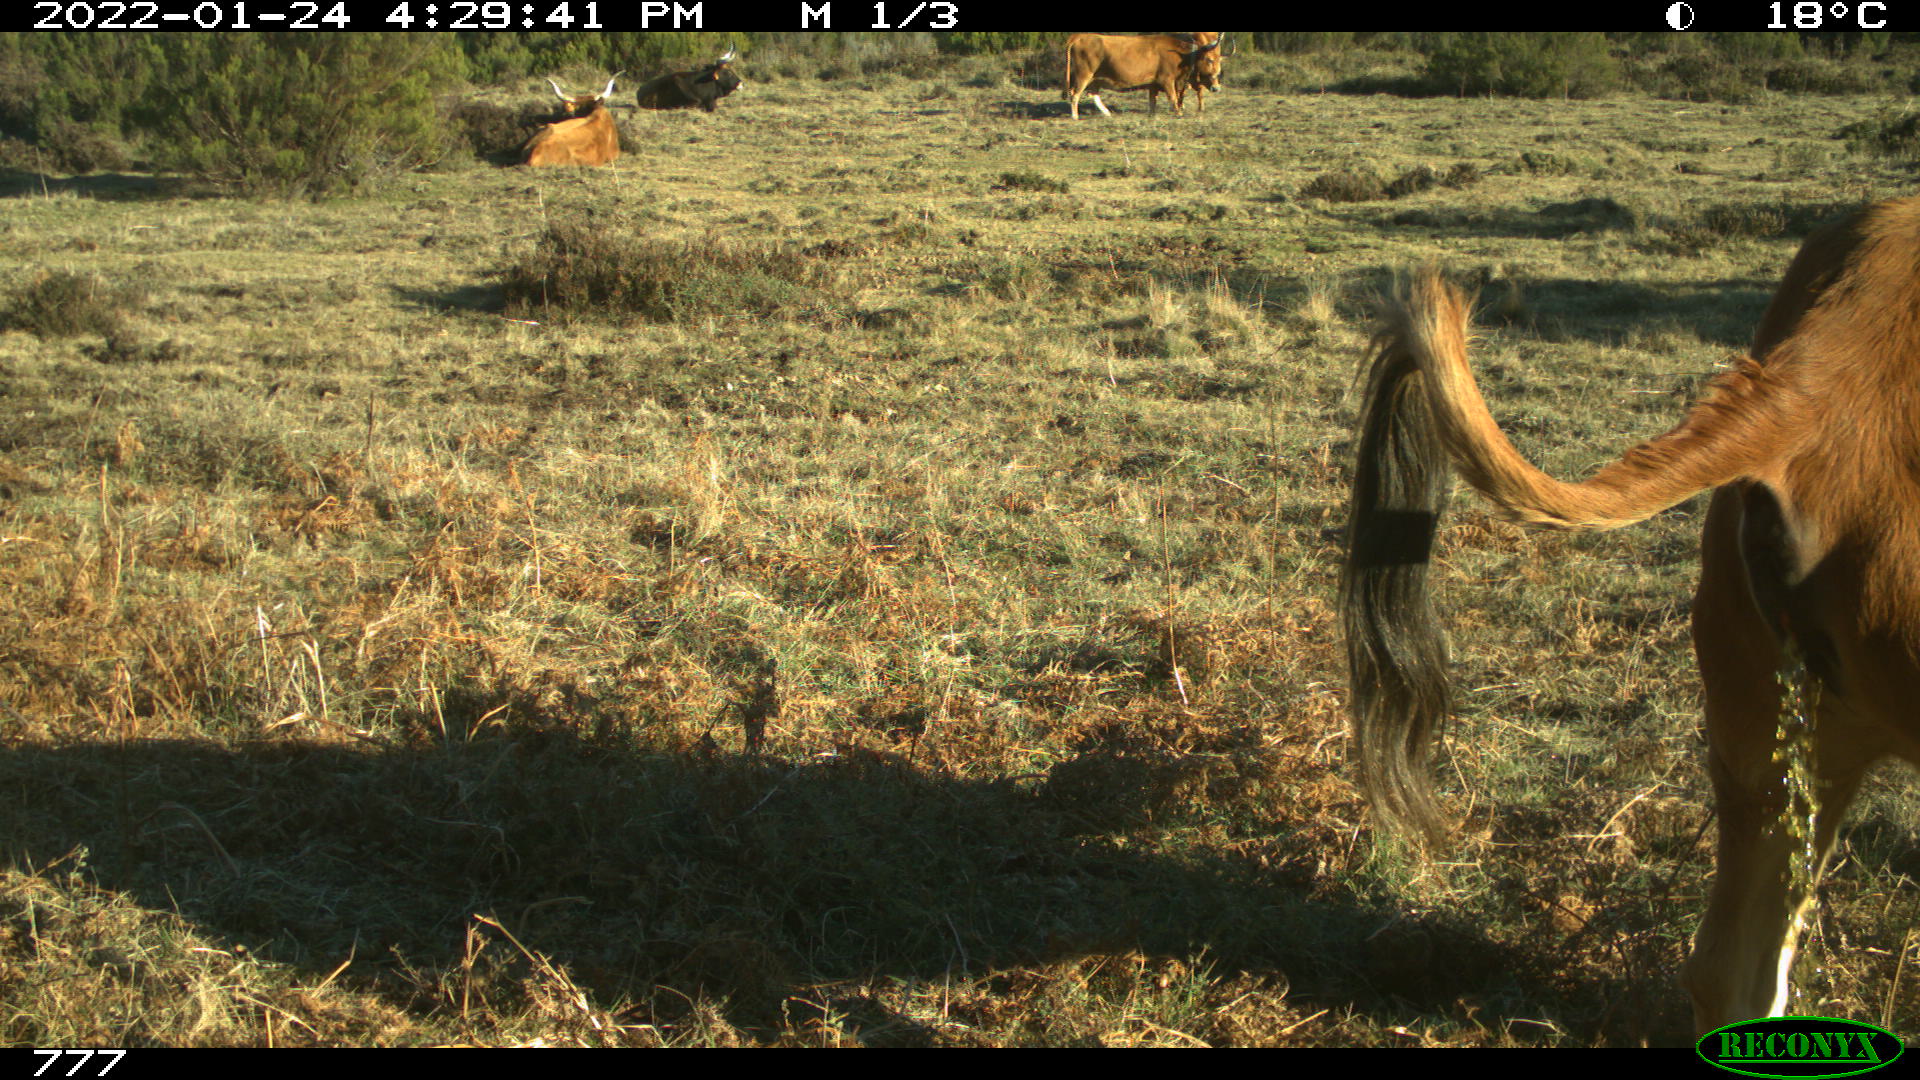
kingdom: Animalia
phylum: Chordata
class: Mammalia
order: Artiodactyla
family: Bovidae
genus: Bos
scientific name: Bos taurus
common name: Domesticated cattle
